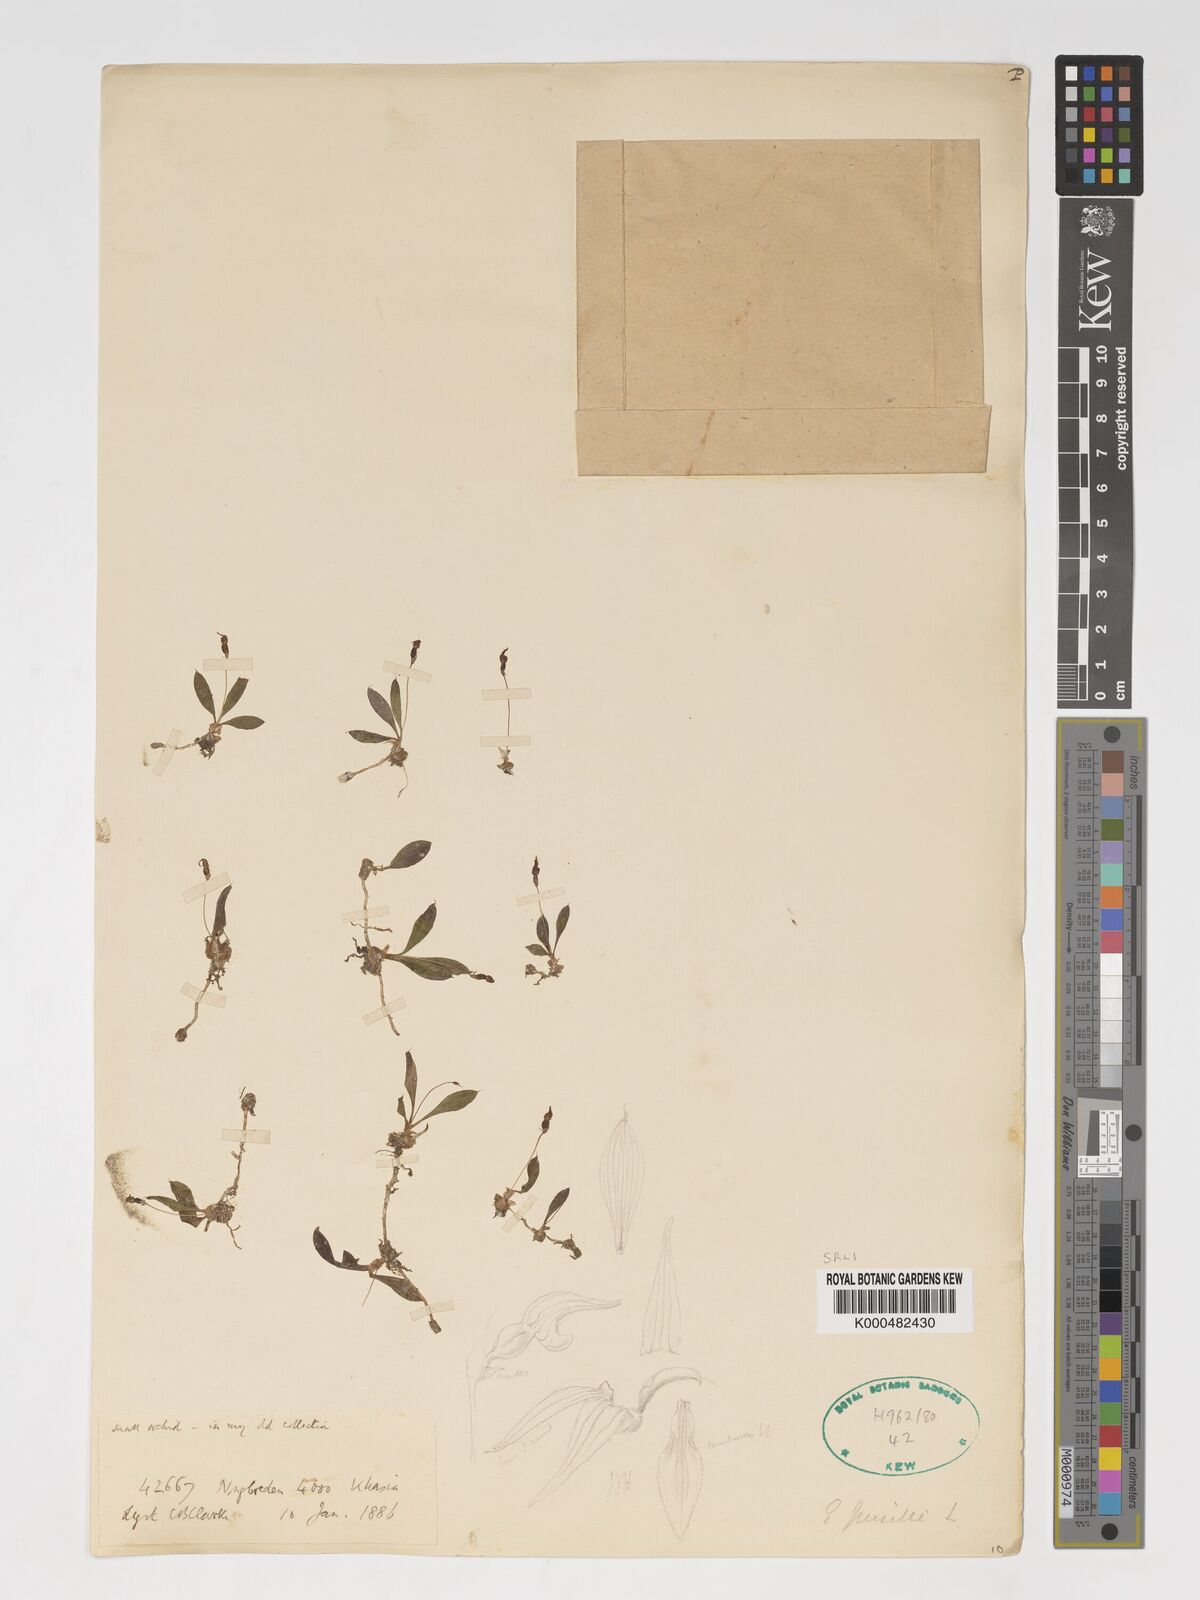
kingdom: Plantae
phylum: Tracheophyta
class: Liliopsida
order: Asparagales
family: Orchidaceae
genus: Porpax
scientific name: Porpax pusilla
